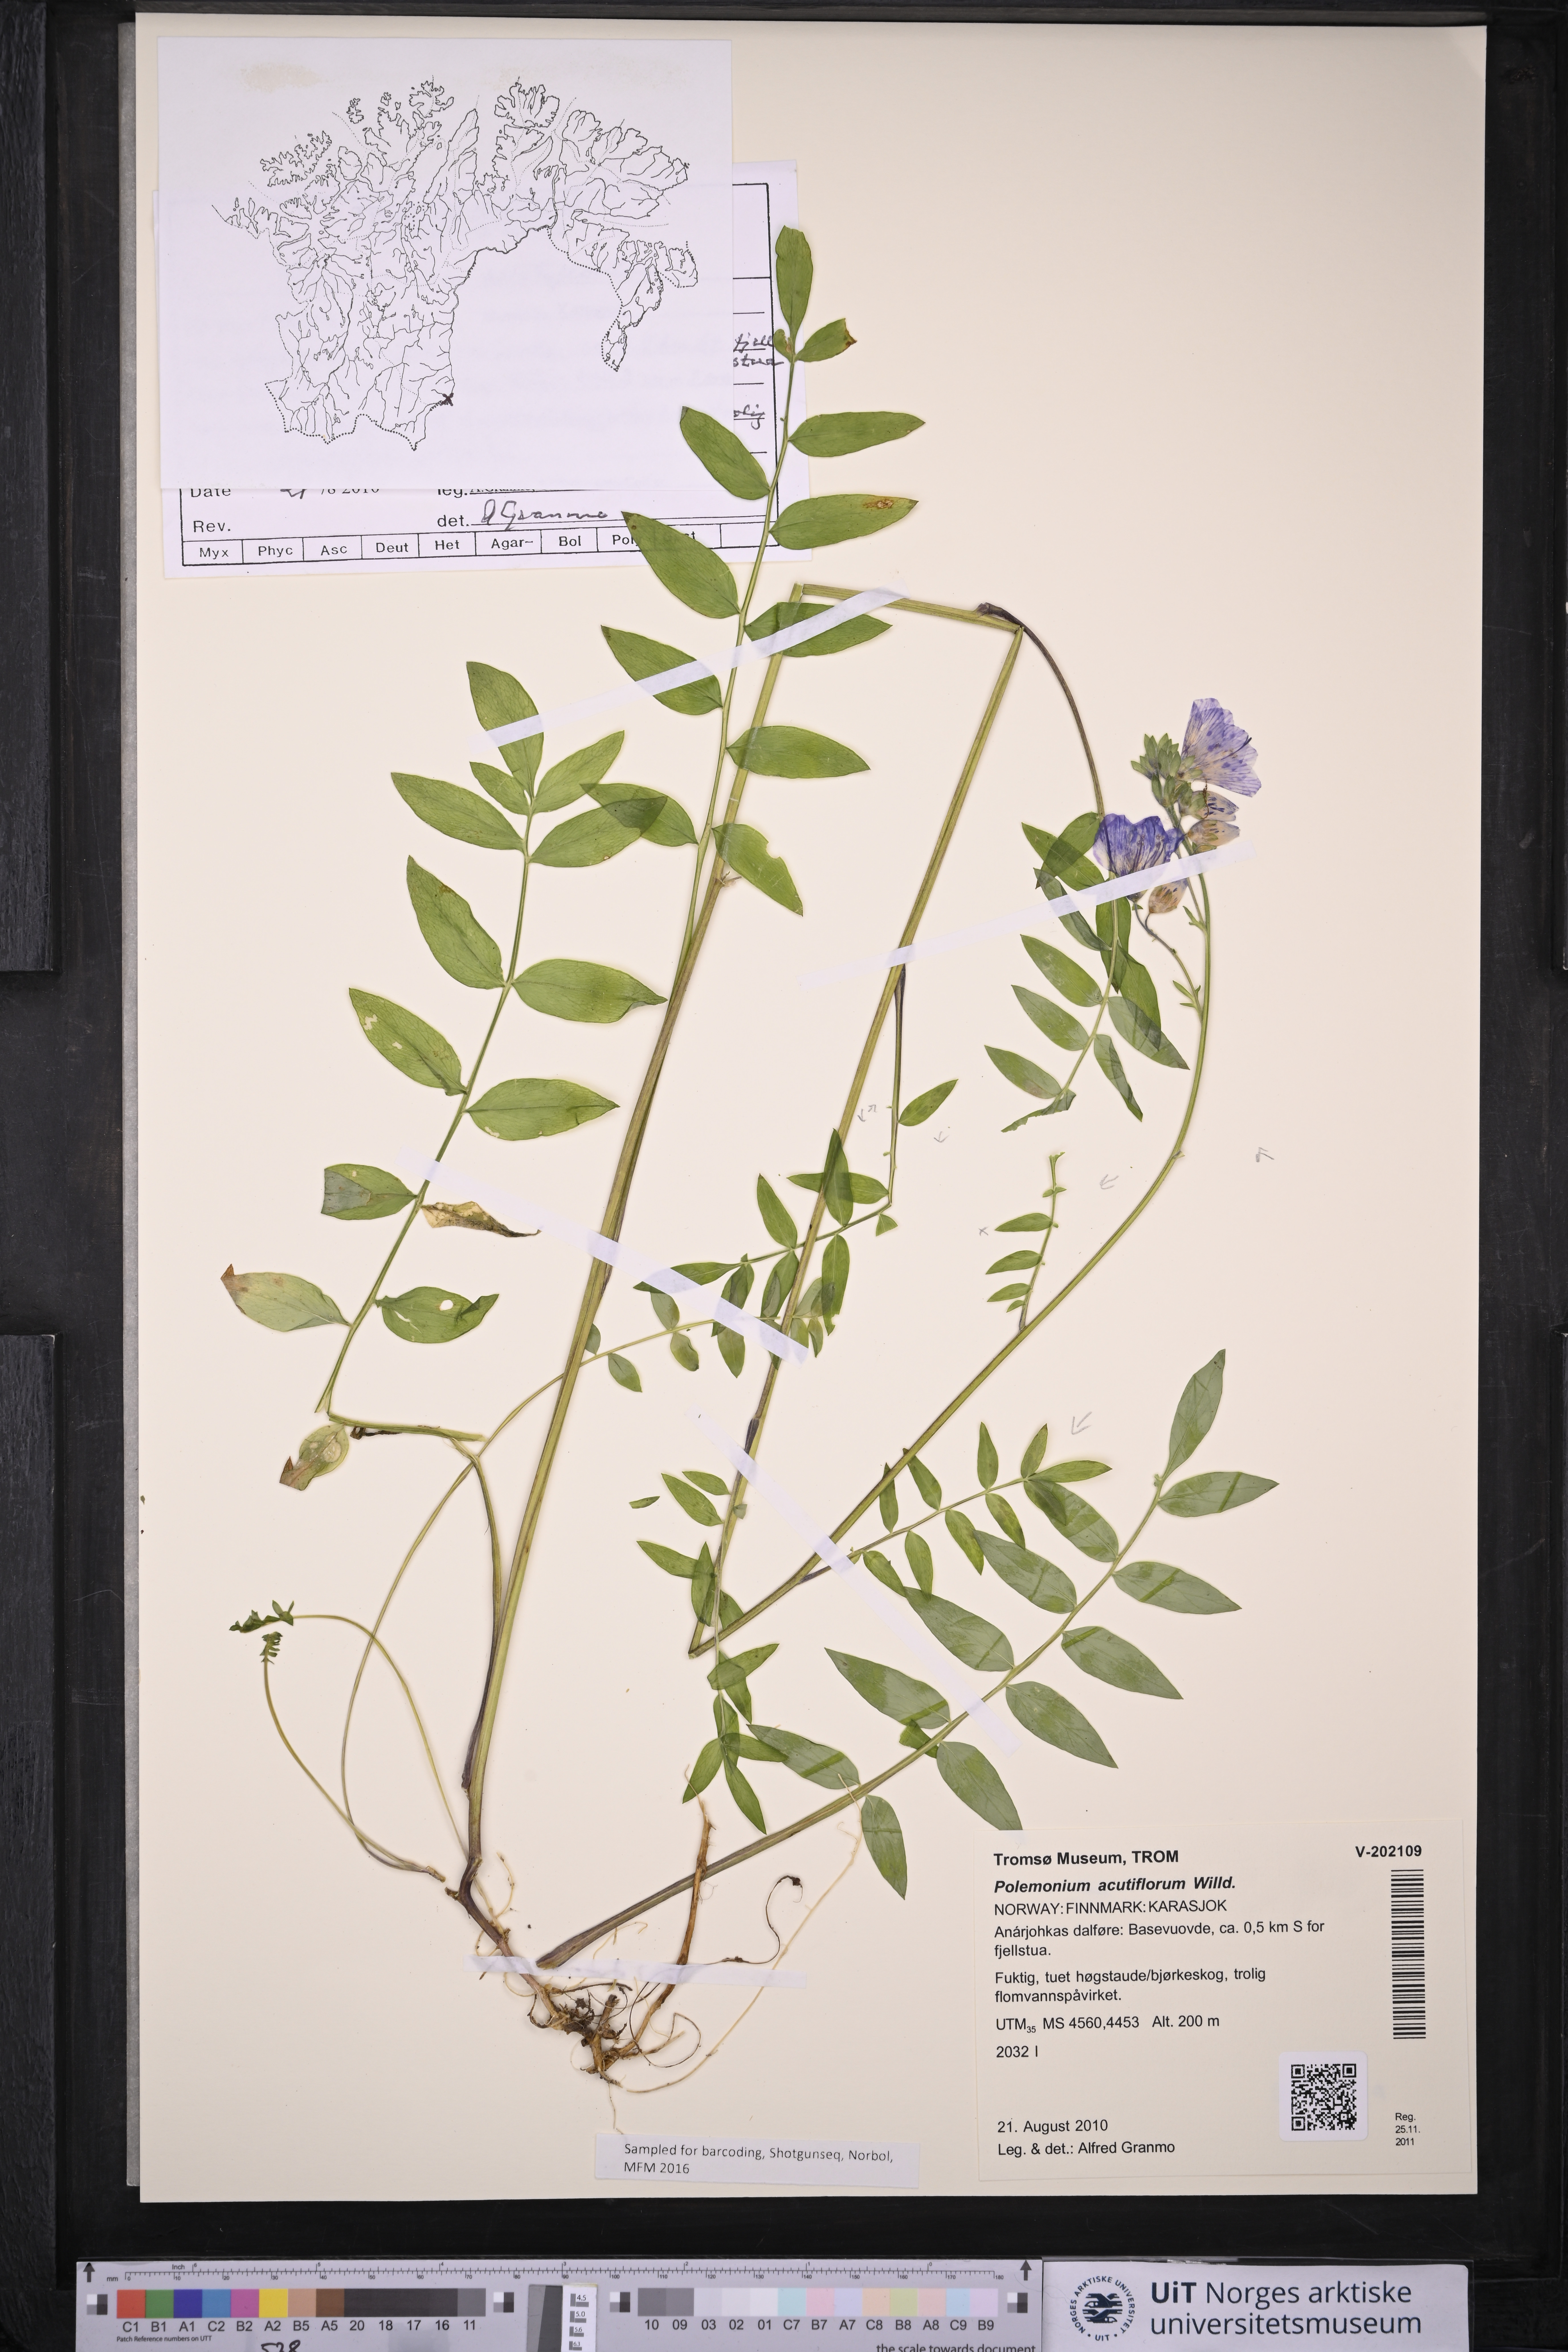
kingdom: Plantae
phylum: Tracheophyta
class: Magnoliopsida
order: Ericales
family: Polemoniaceae
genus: Polemonium
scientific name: Polemonium villosum
